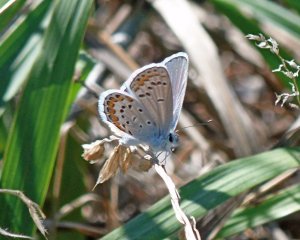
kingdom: Animalia
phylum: Arthropoda
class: Insecta
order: Lepidoptera
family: Lycaenidae
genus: Lycaeides
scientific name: Lycaeides melissa
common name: Melissa Blue
